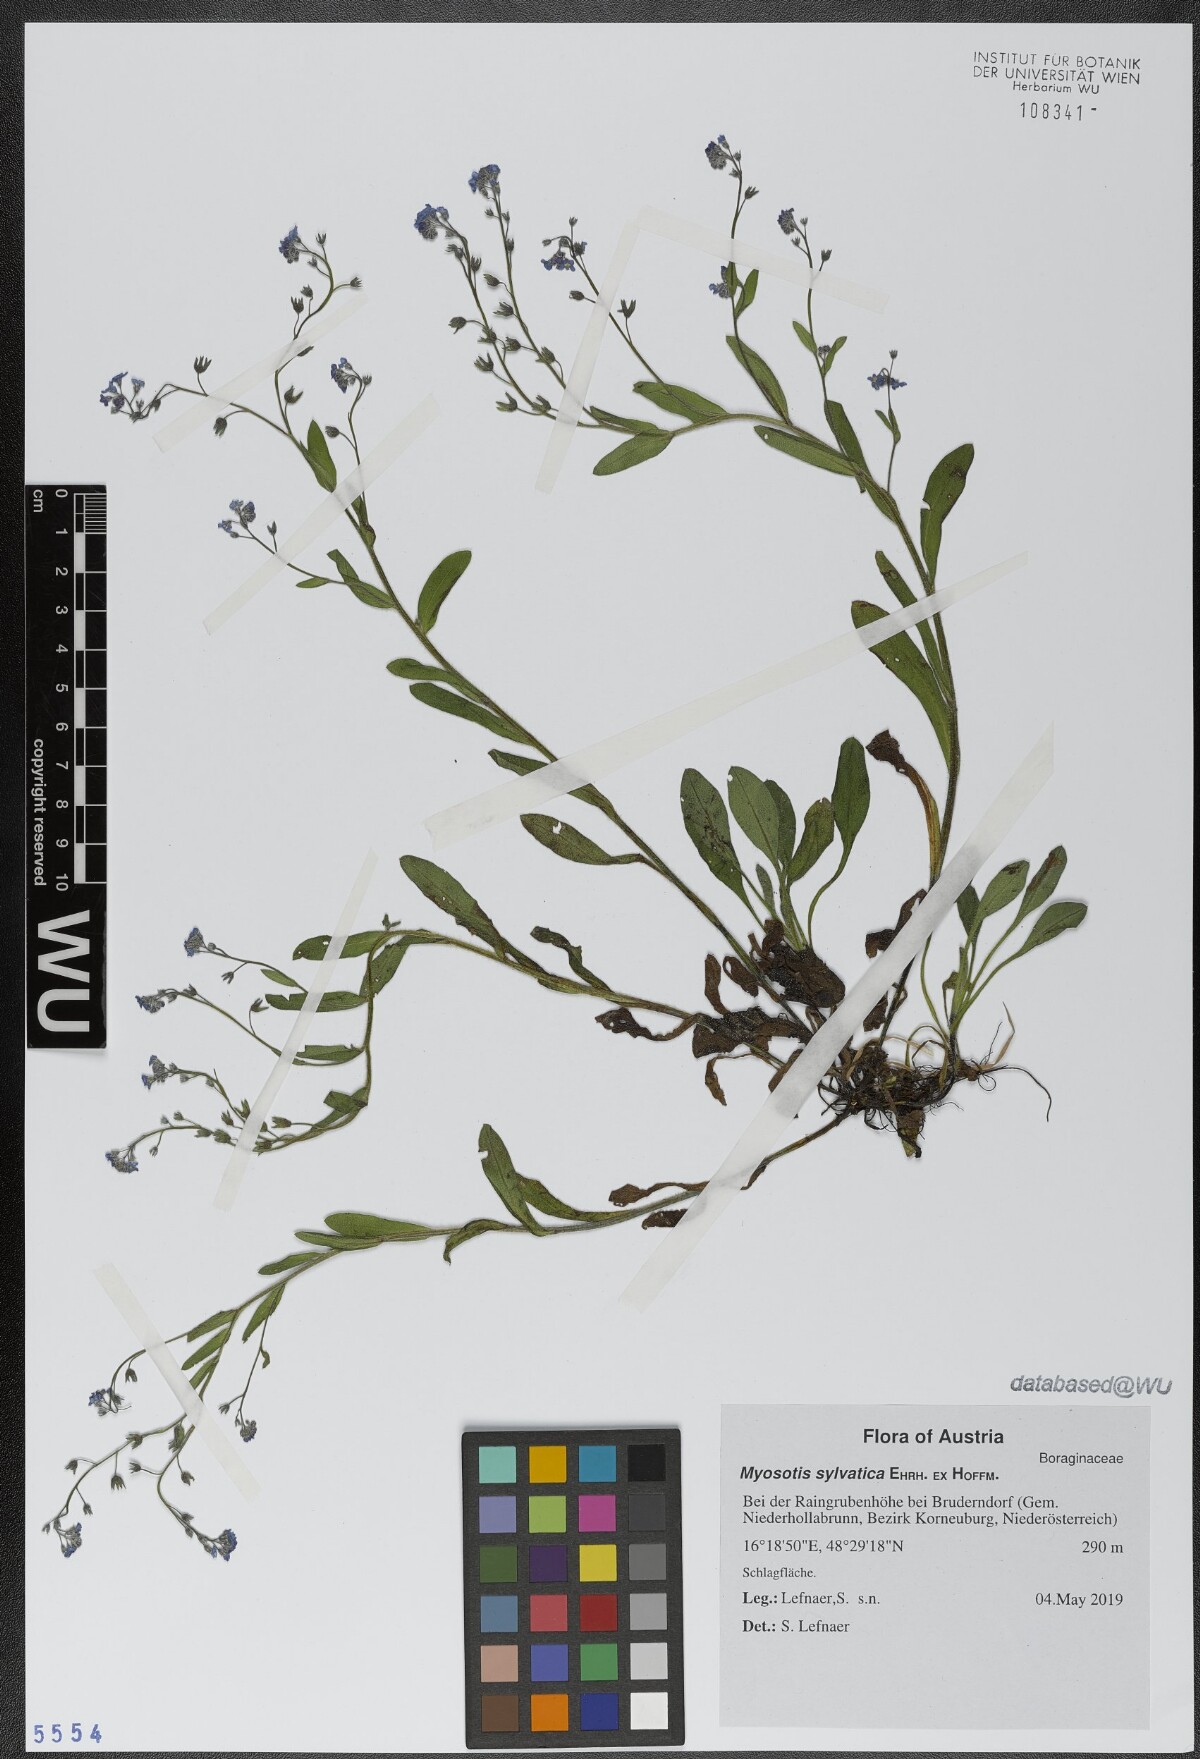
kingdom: Plantae
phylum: Tracheophyta
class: Magnoliopsida
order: Boraginales
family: Boraginaceae
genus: Myosotis
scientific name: Myosotis sylvatica
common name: Wood forget-me-not
